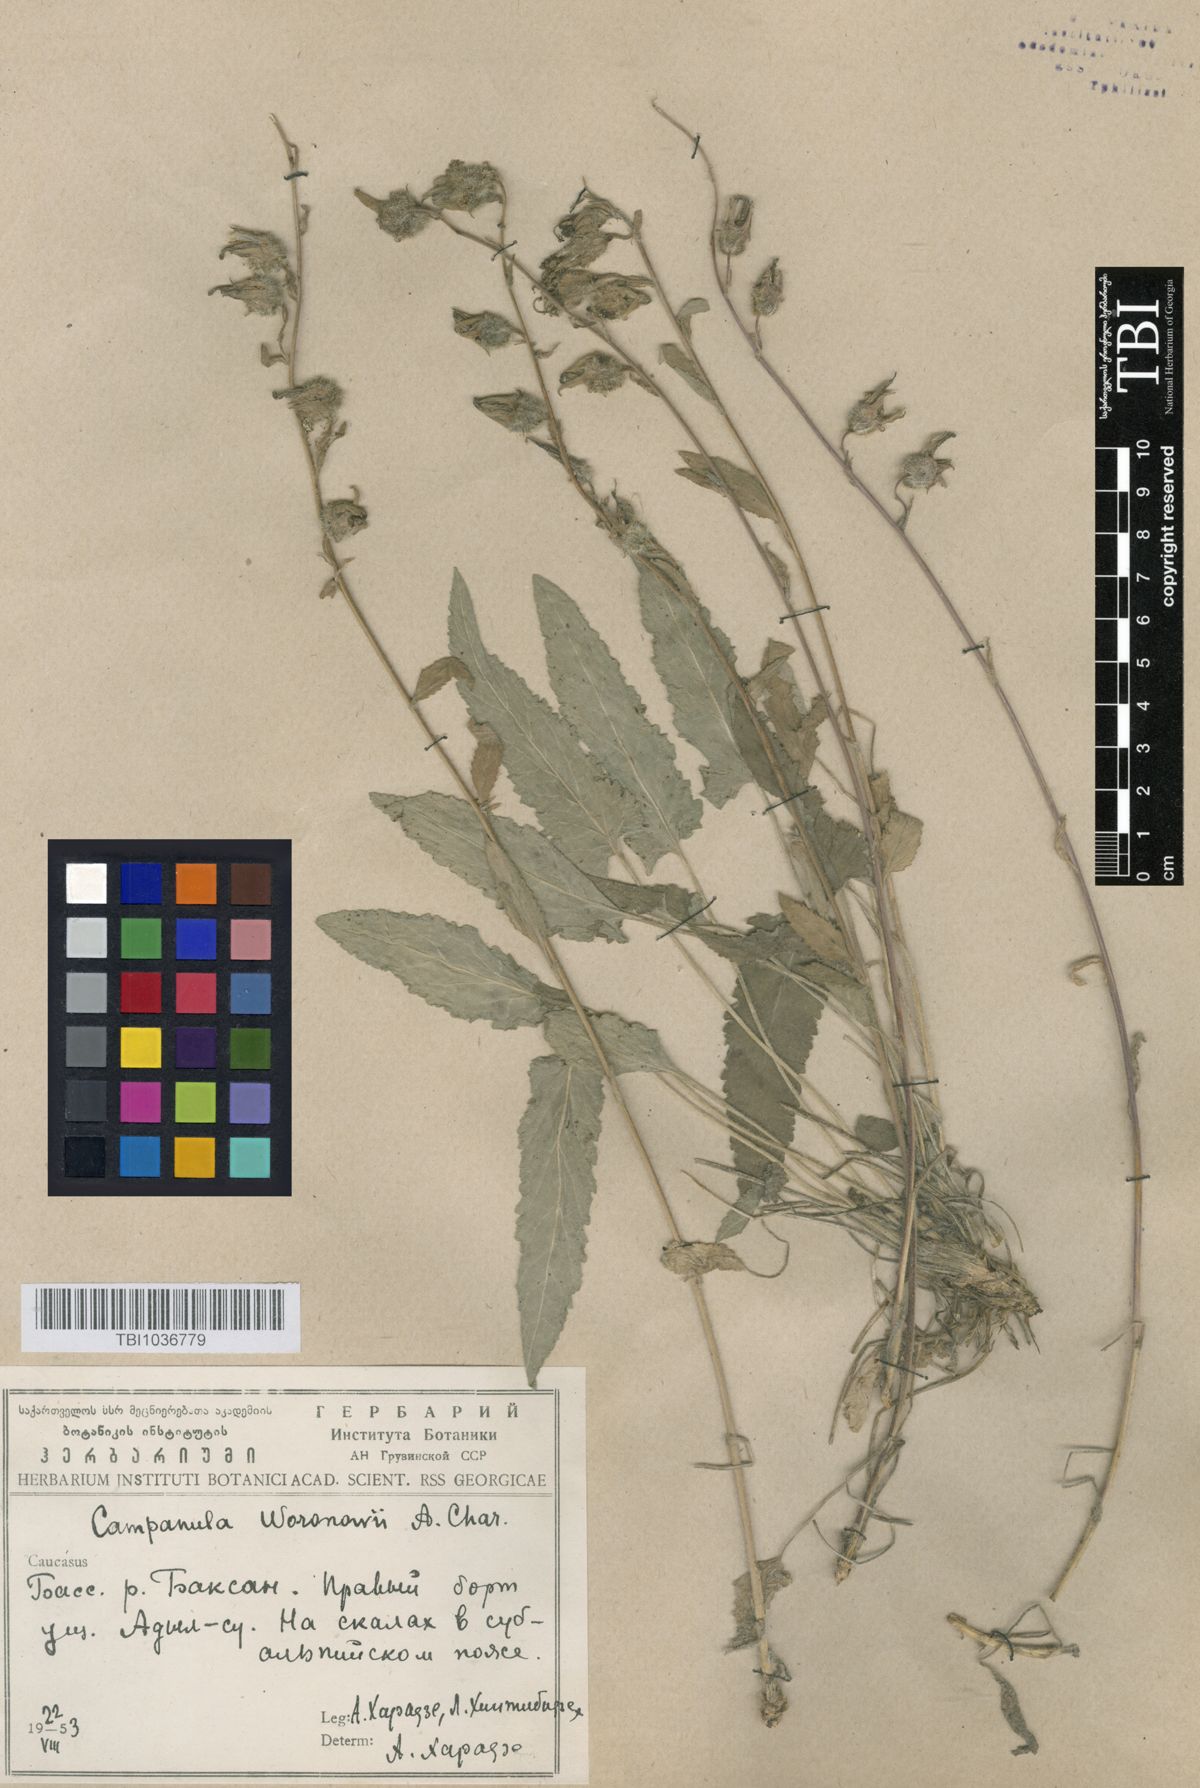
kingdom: Plantae
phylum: Tracheophyta
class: Magnoliopsida
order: Asterales
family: Campanulaceae
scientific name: Campanulaceae
